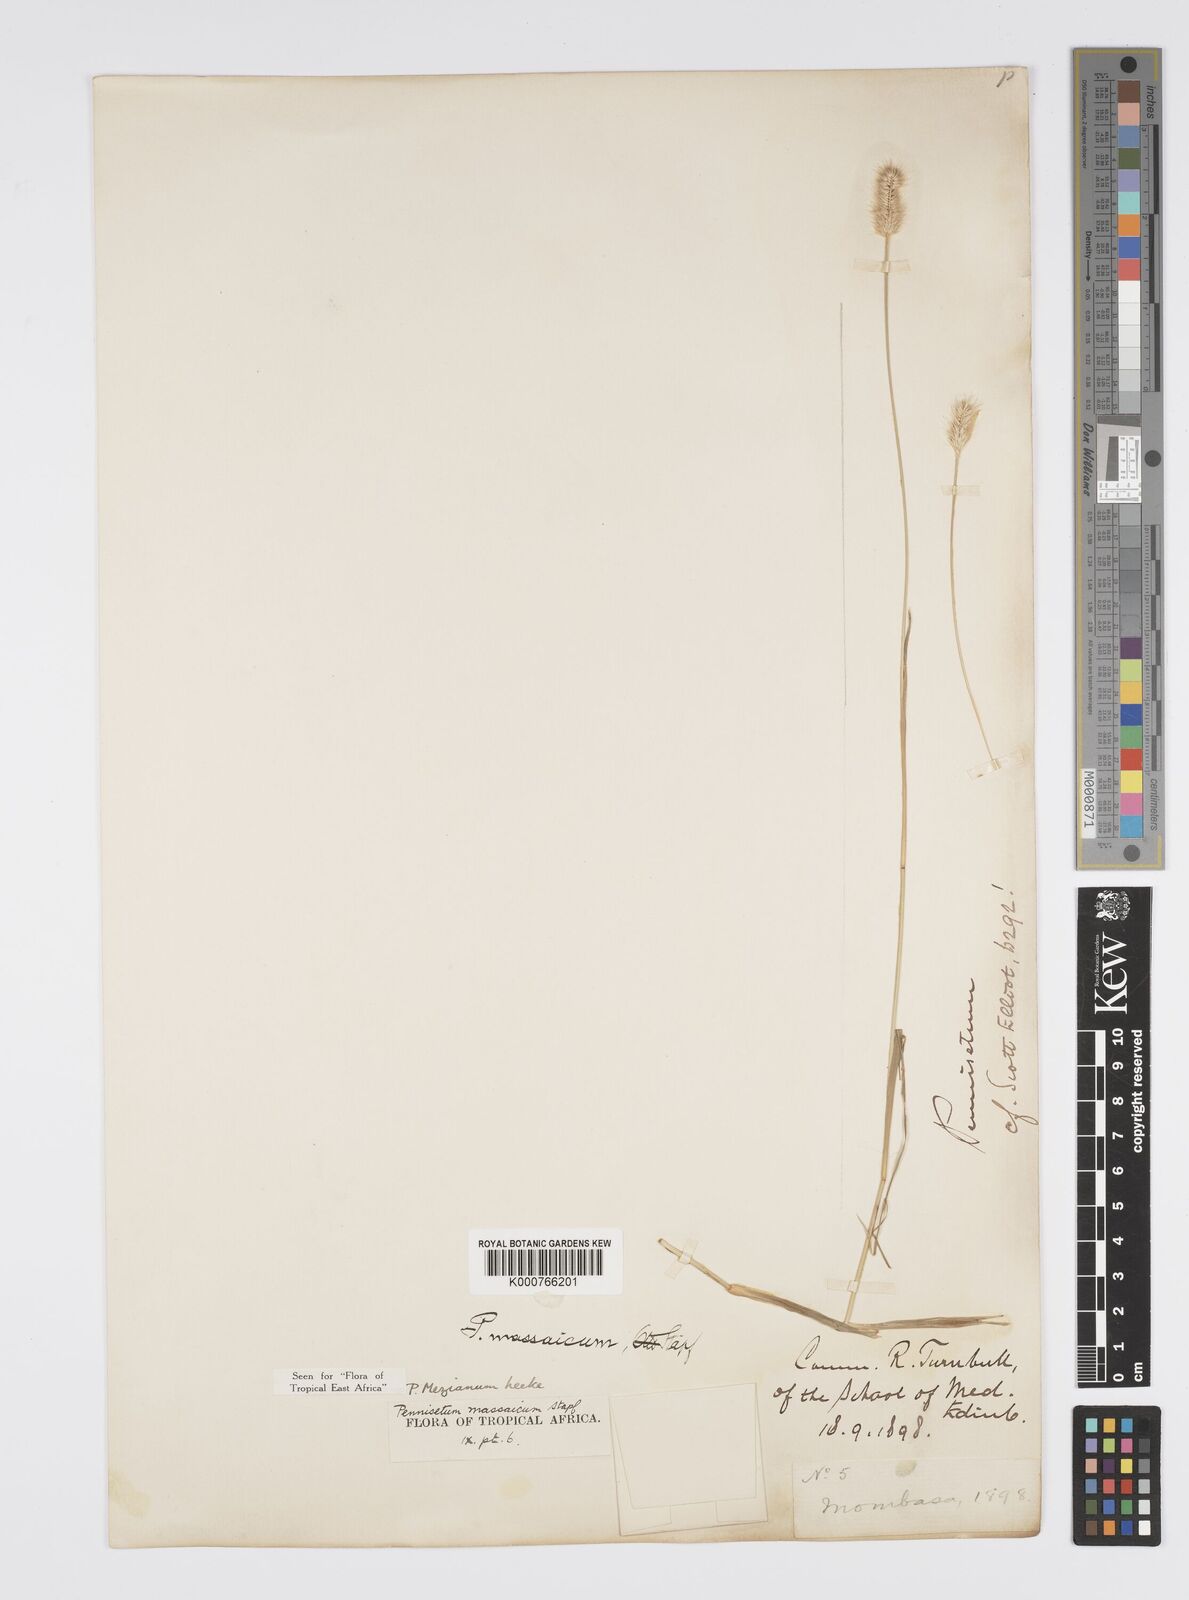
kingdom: Plantae
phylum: Tracheophyta
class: Liliopsida
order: Poales
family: Poaceae
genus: Cenchrus
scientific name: Cenchrus mezianus
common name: Bamboo grass
